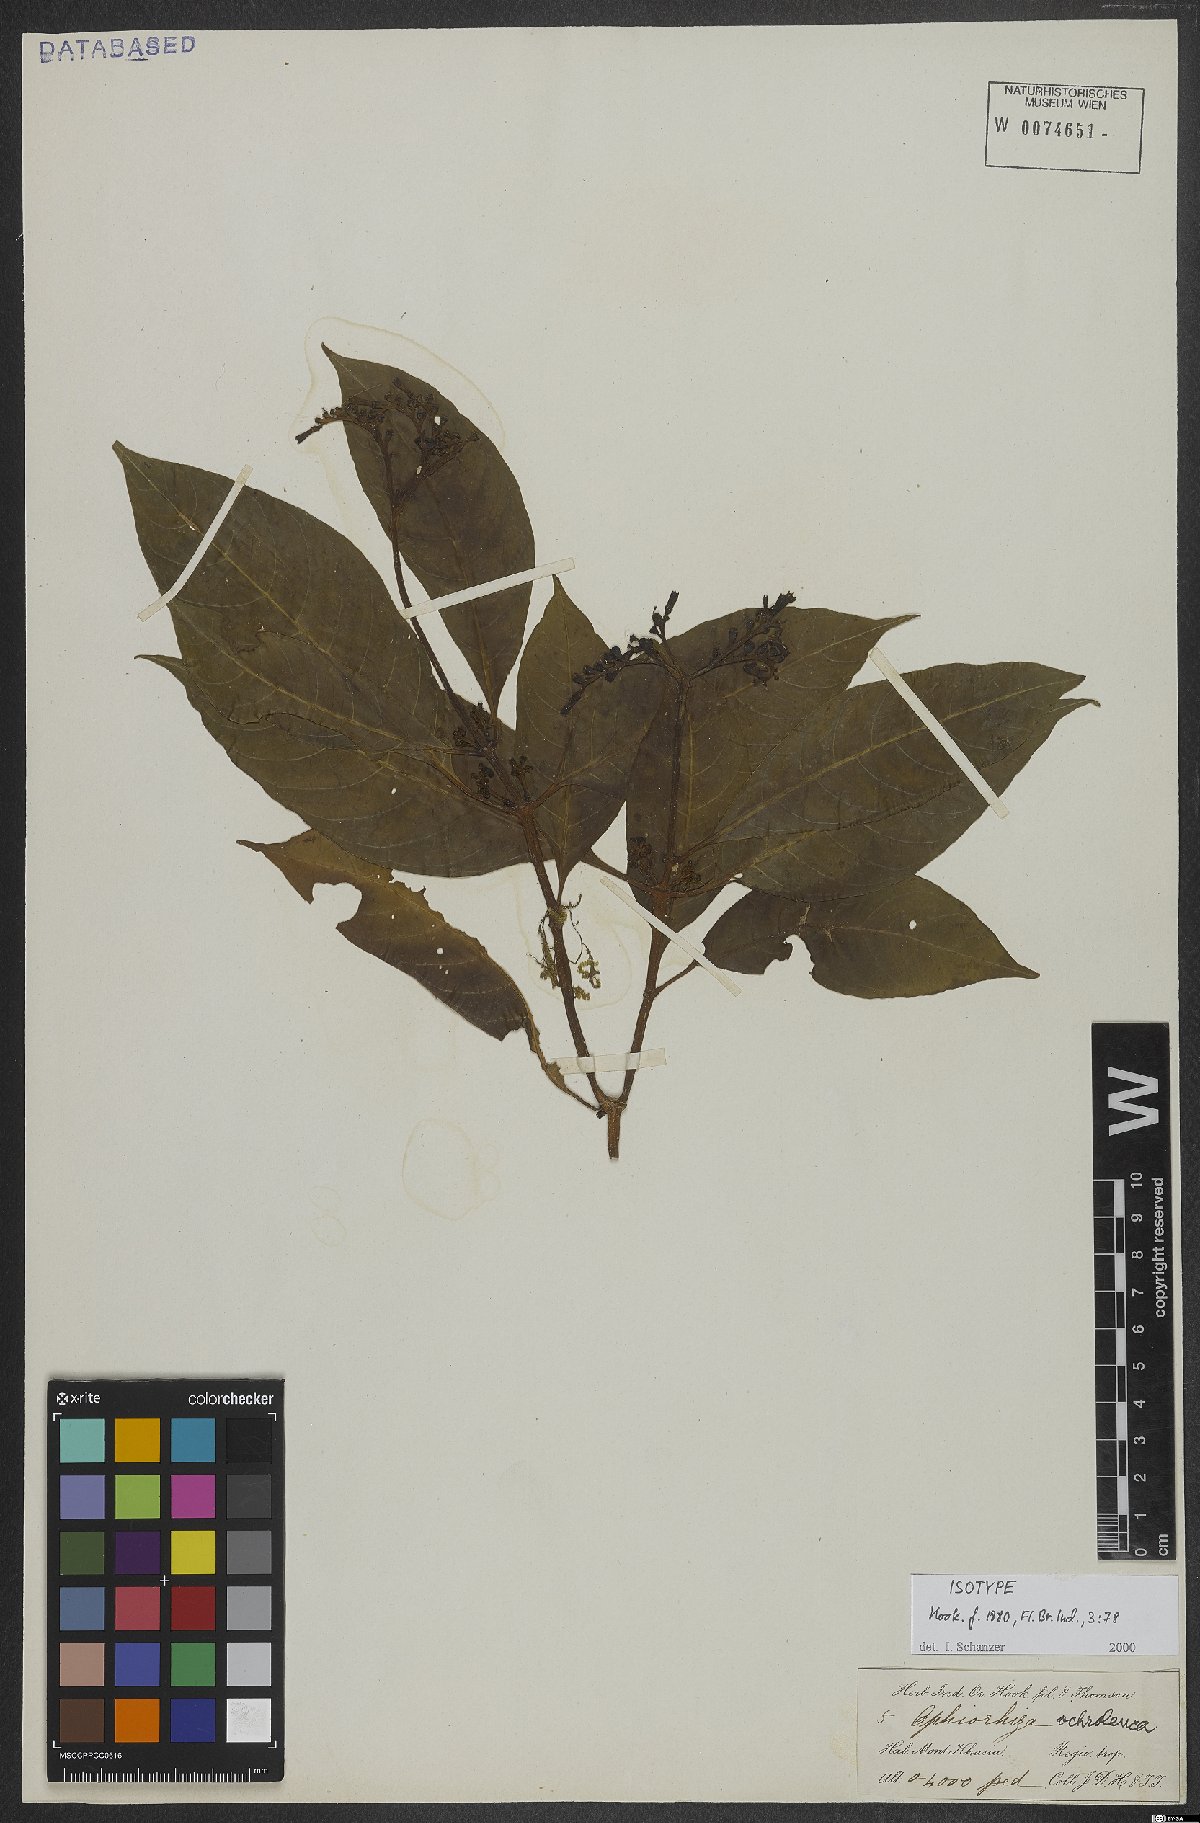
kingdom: Plantae
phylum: Tracheophyta
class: Magnoliopsida
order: Gentianales
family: Rubiaceae
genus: Ophiorrhiza
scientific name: Ophiorrhiza ochroleuca
